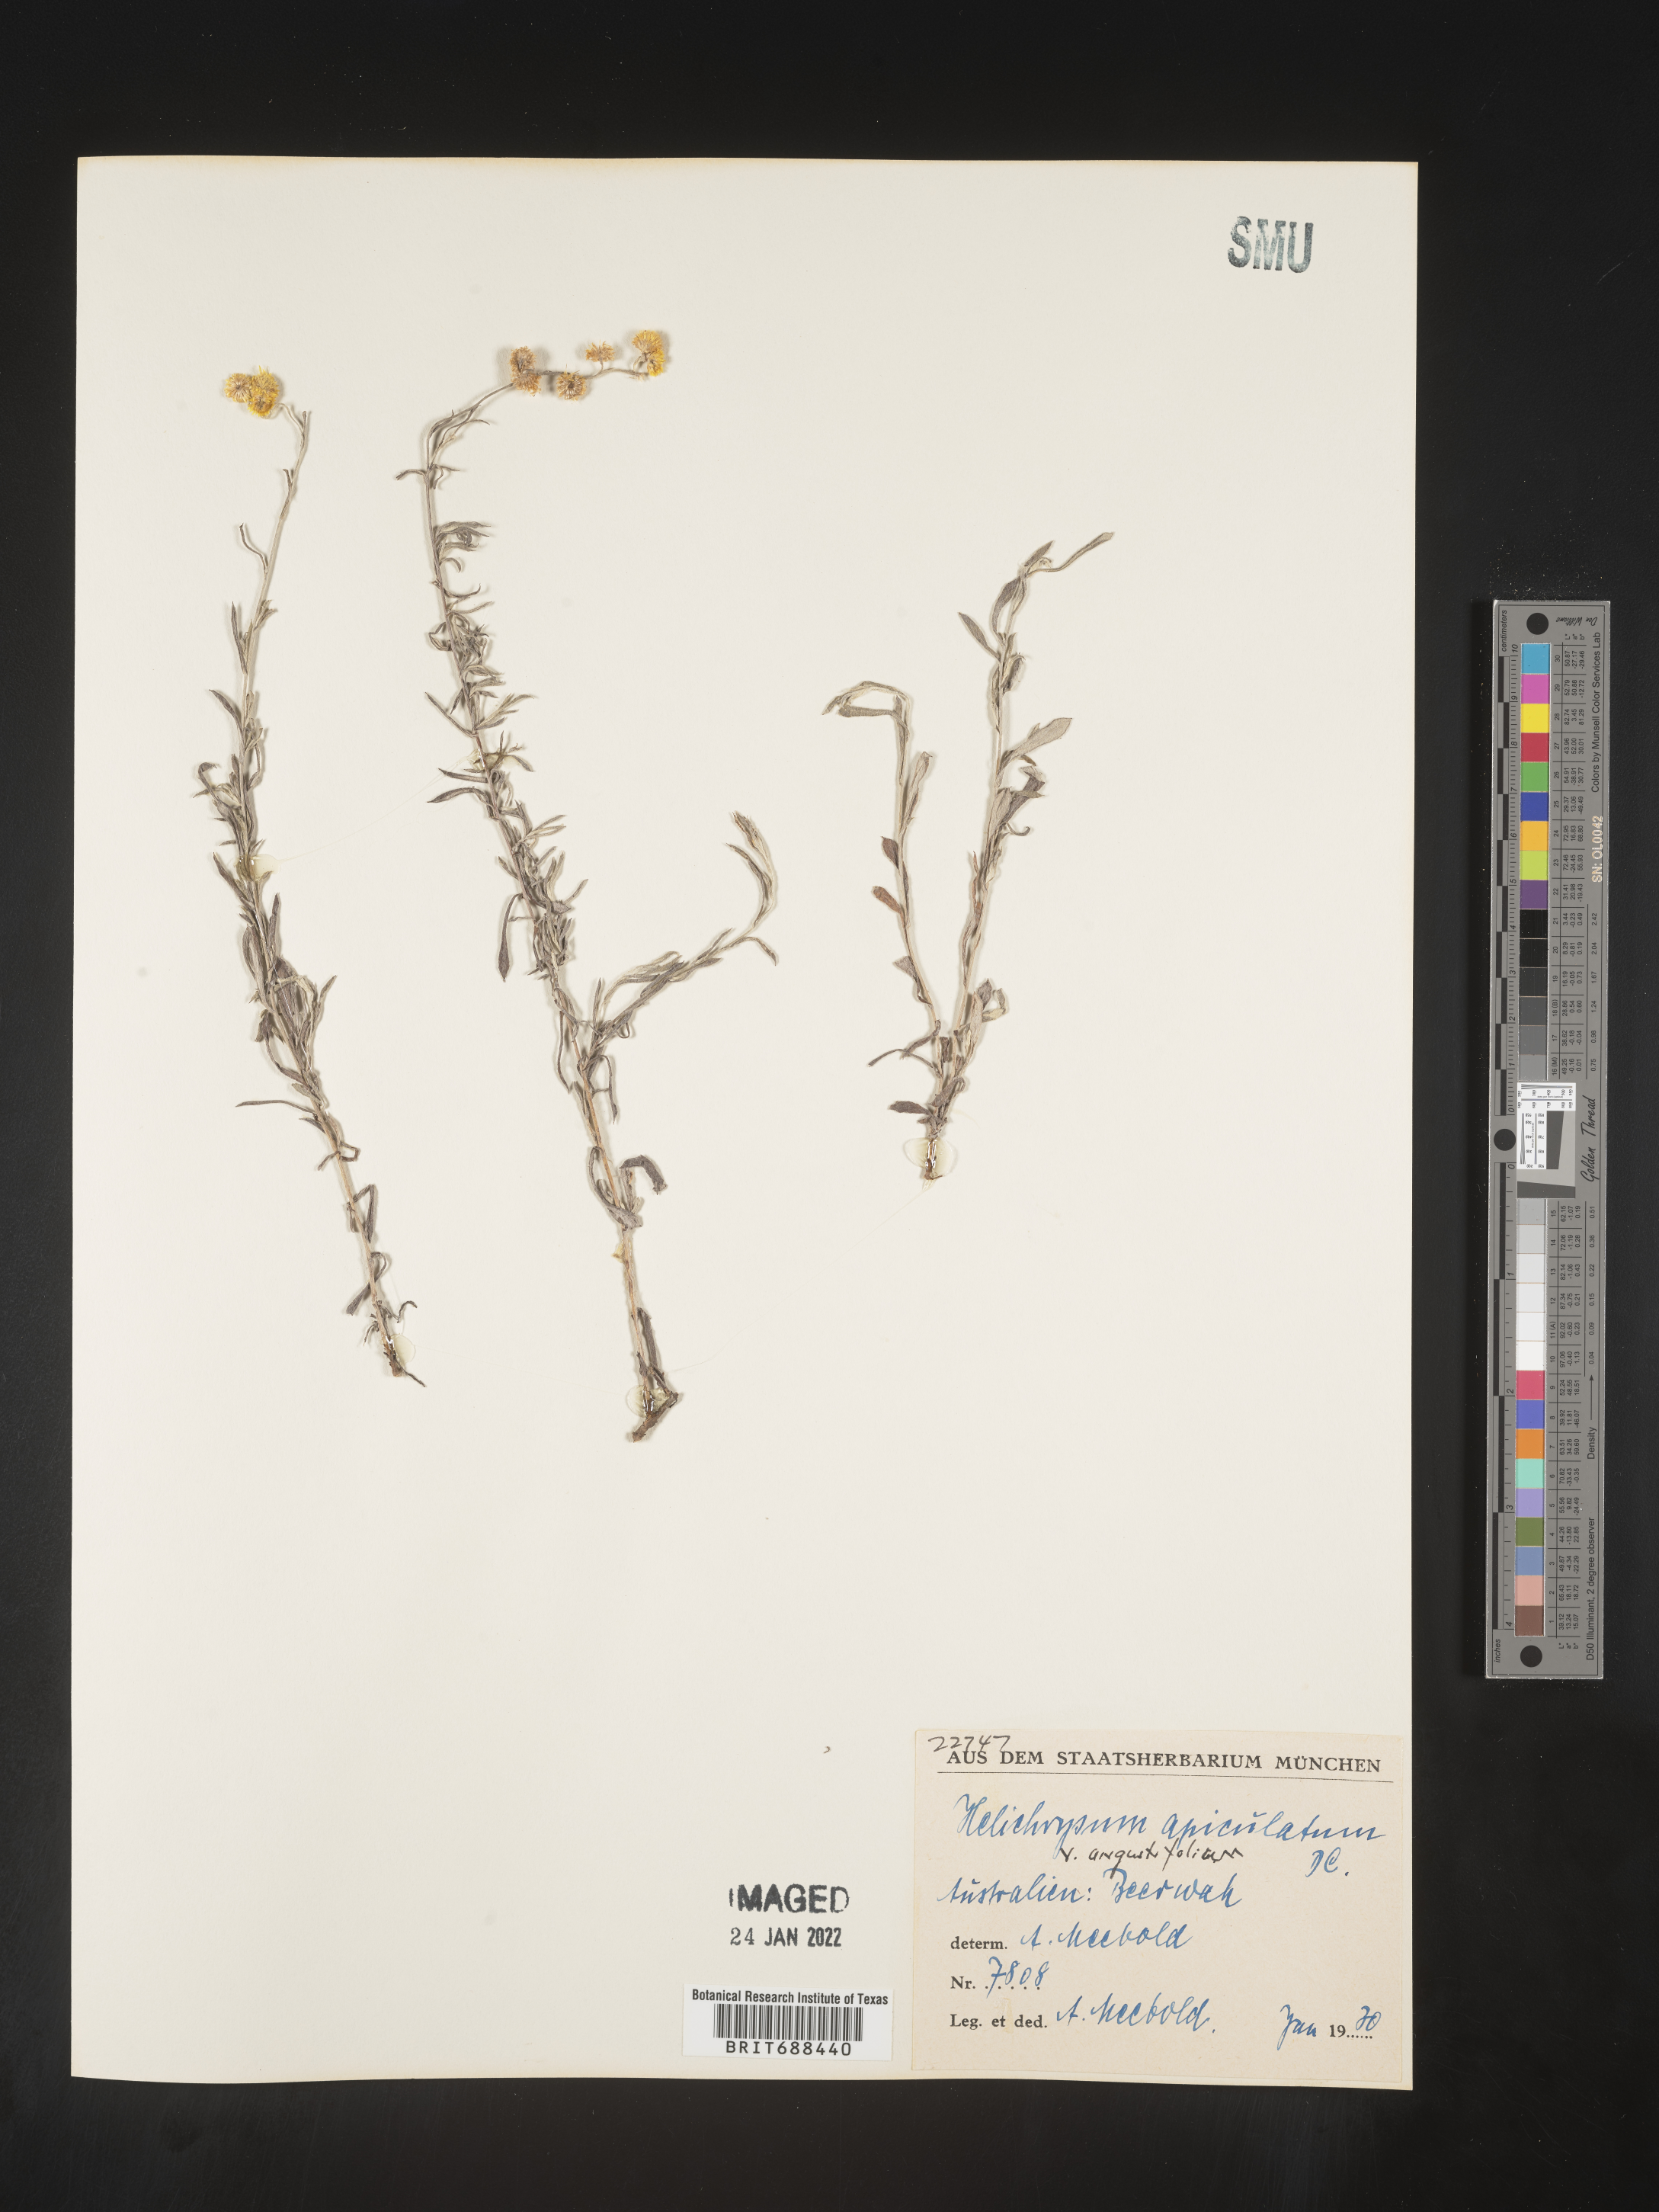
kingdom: Plantae
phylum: Tracheophyta
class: Magnoliopsida
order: Asterales
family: Asteraceae
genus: Chrysocephalum
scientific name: Chrysocephalum
